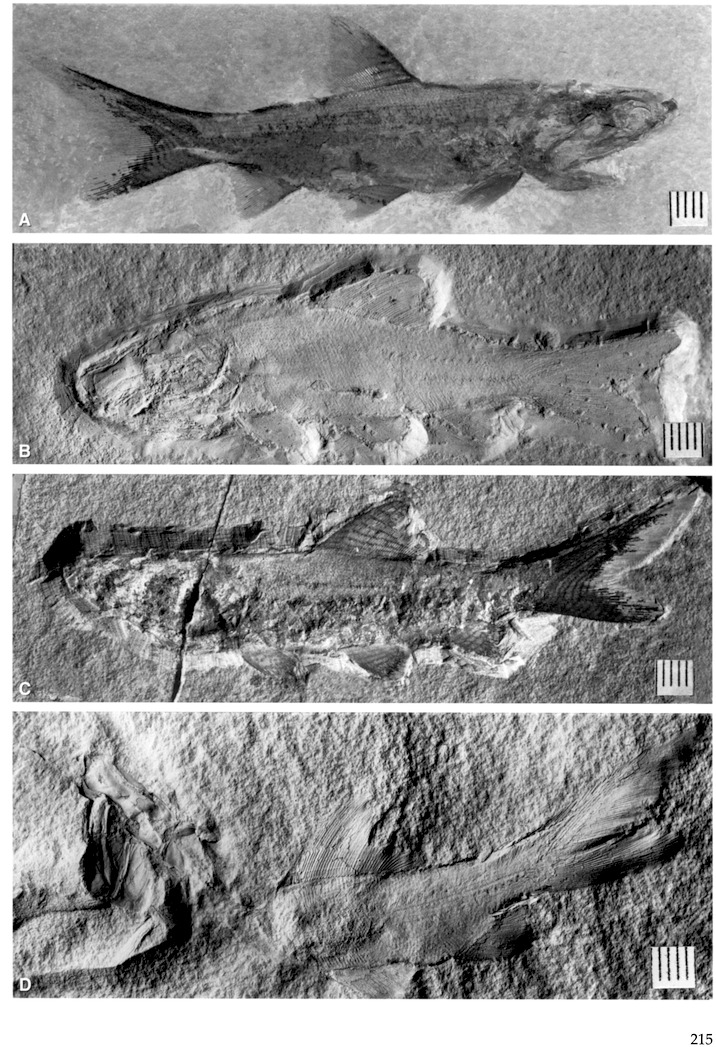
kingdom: Animalia
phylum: Chordata
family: Coccolepididae
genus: Coccolepis
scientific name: Coccolepis bucklandi
